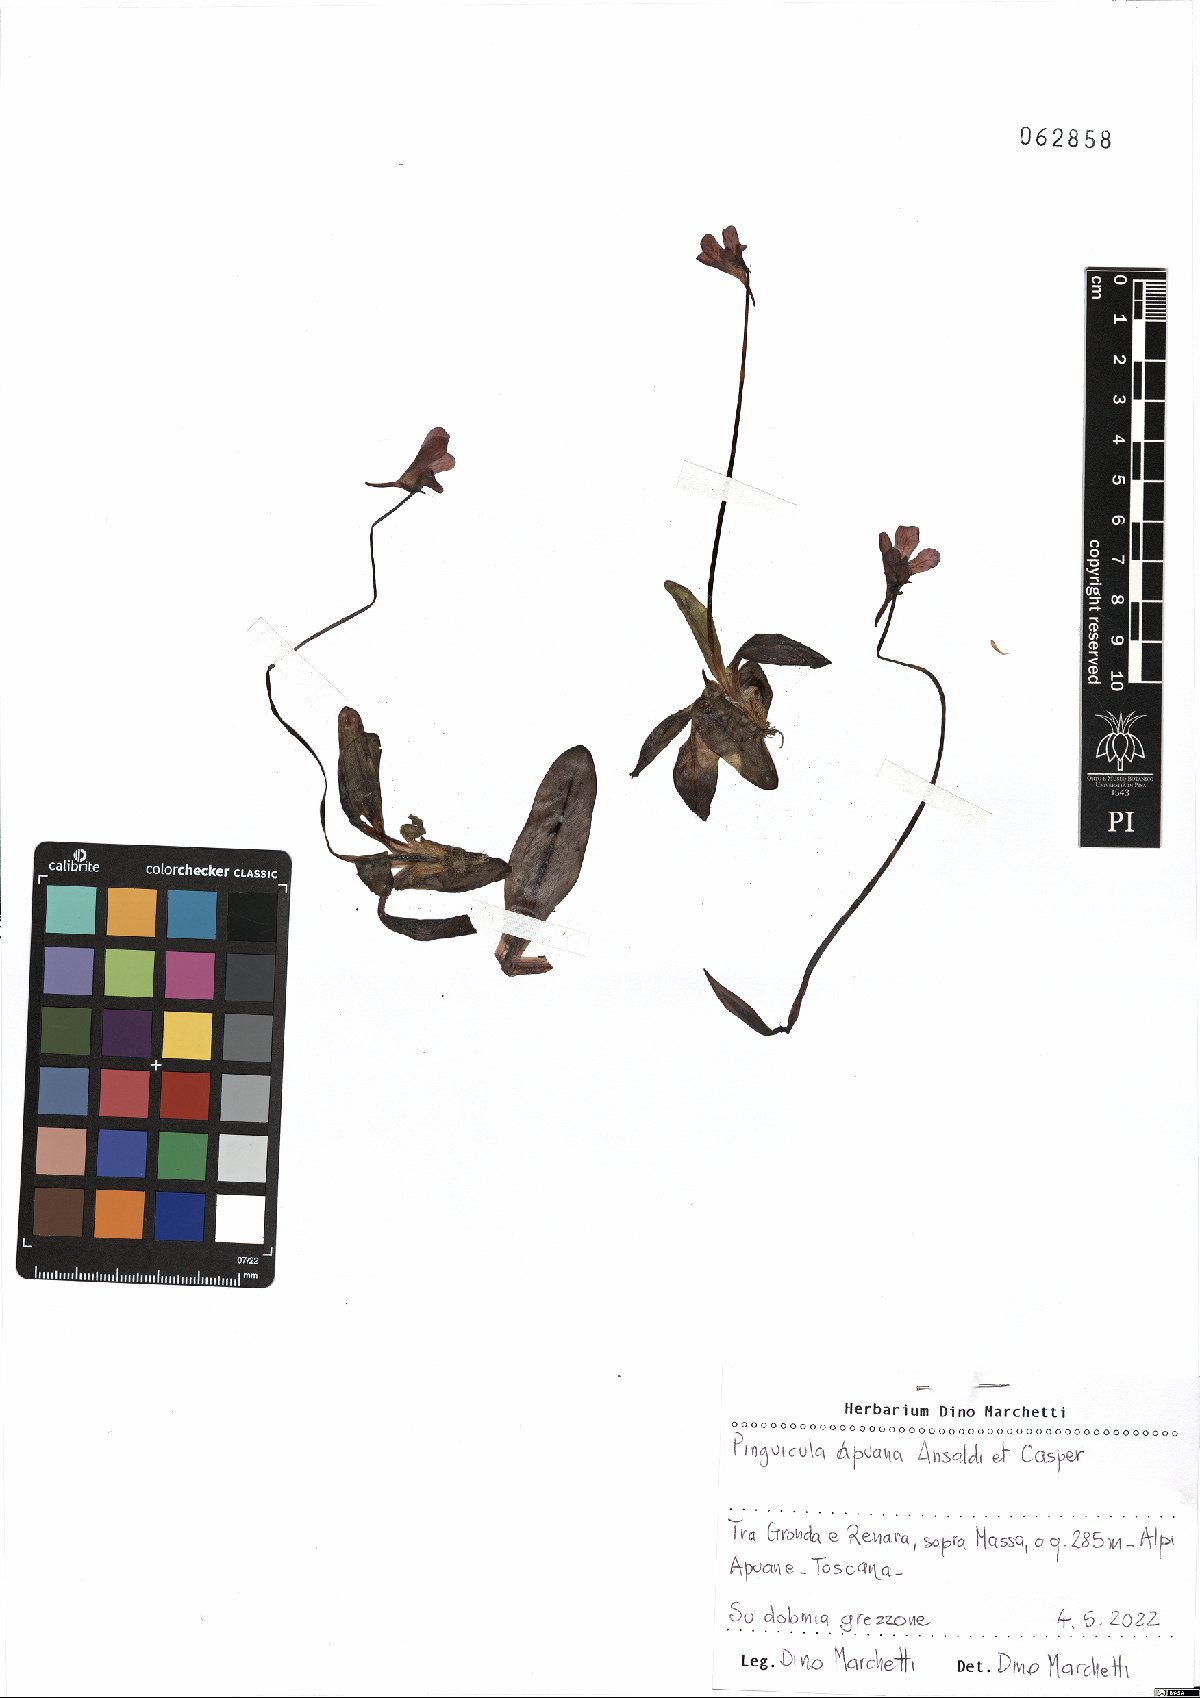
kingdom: Plantae
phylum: Tracheophyta
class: Magnoliopsida
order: Lamiales
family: Lentibulariaceae
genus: Pinguicula
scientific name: Pinguicula apuana
